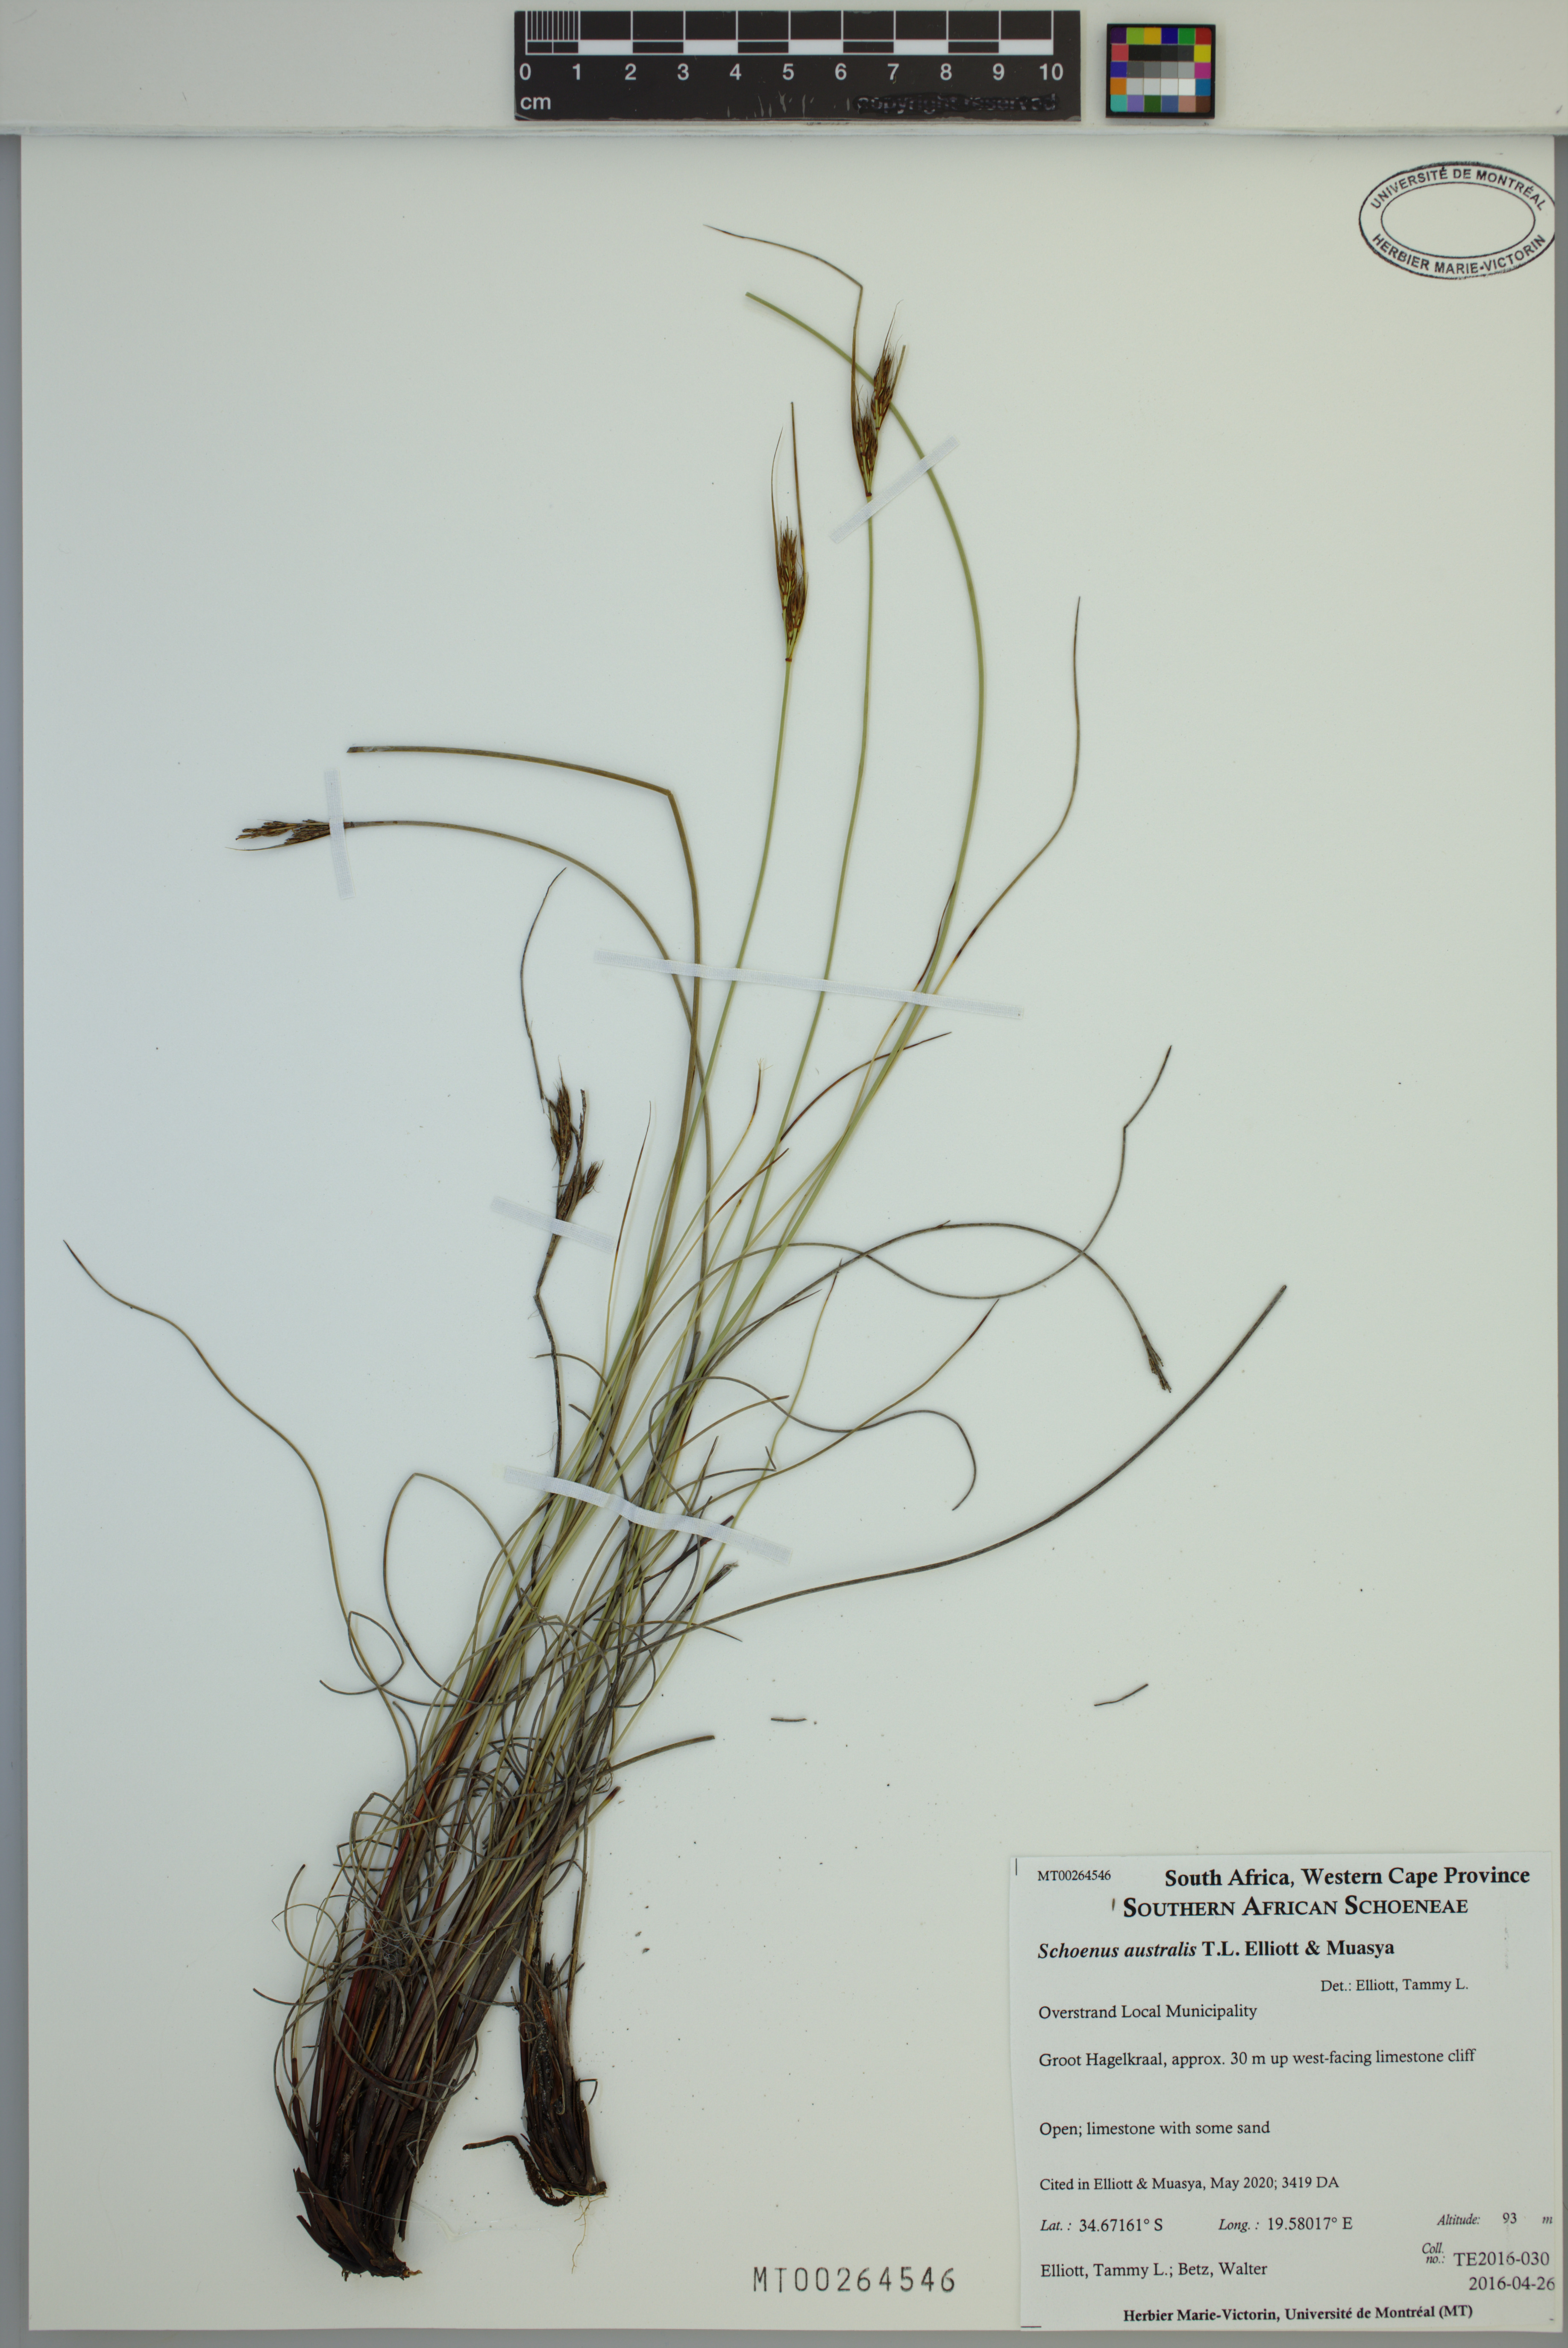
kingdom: Plantae
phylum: Tracheophyta
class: Liliopsida
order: Poales
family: Cyperaceae
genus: Schoenus
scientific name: Schoenus australis
